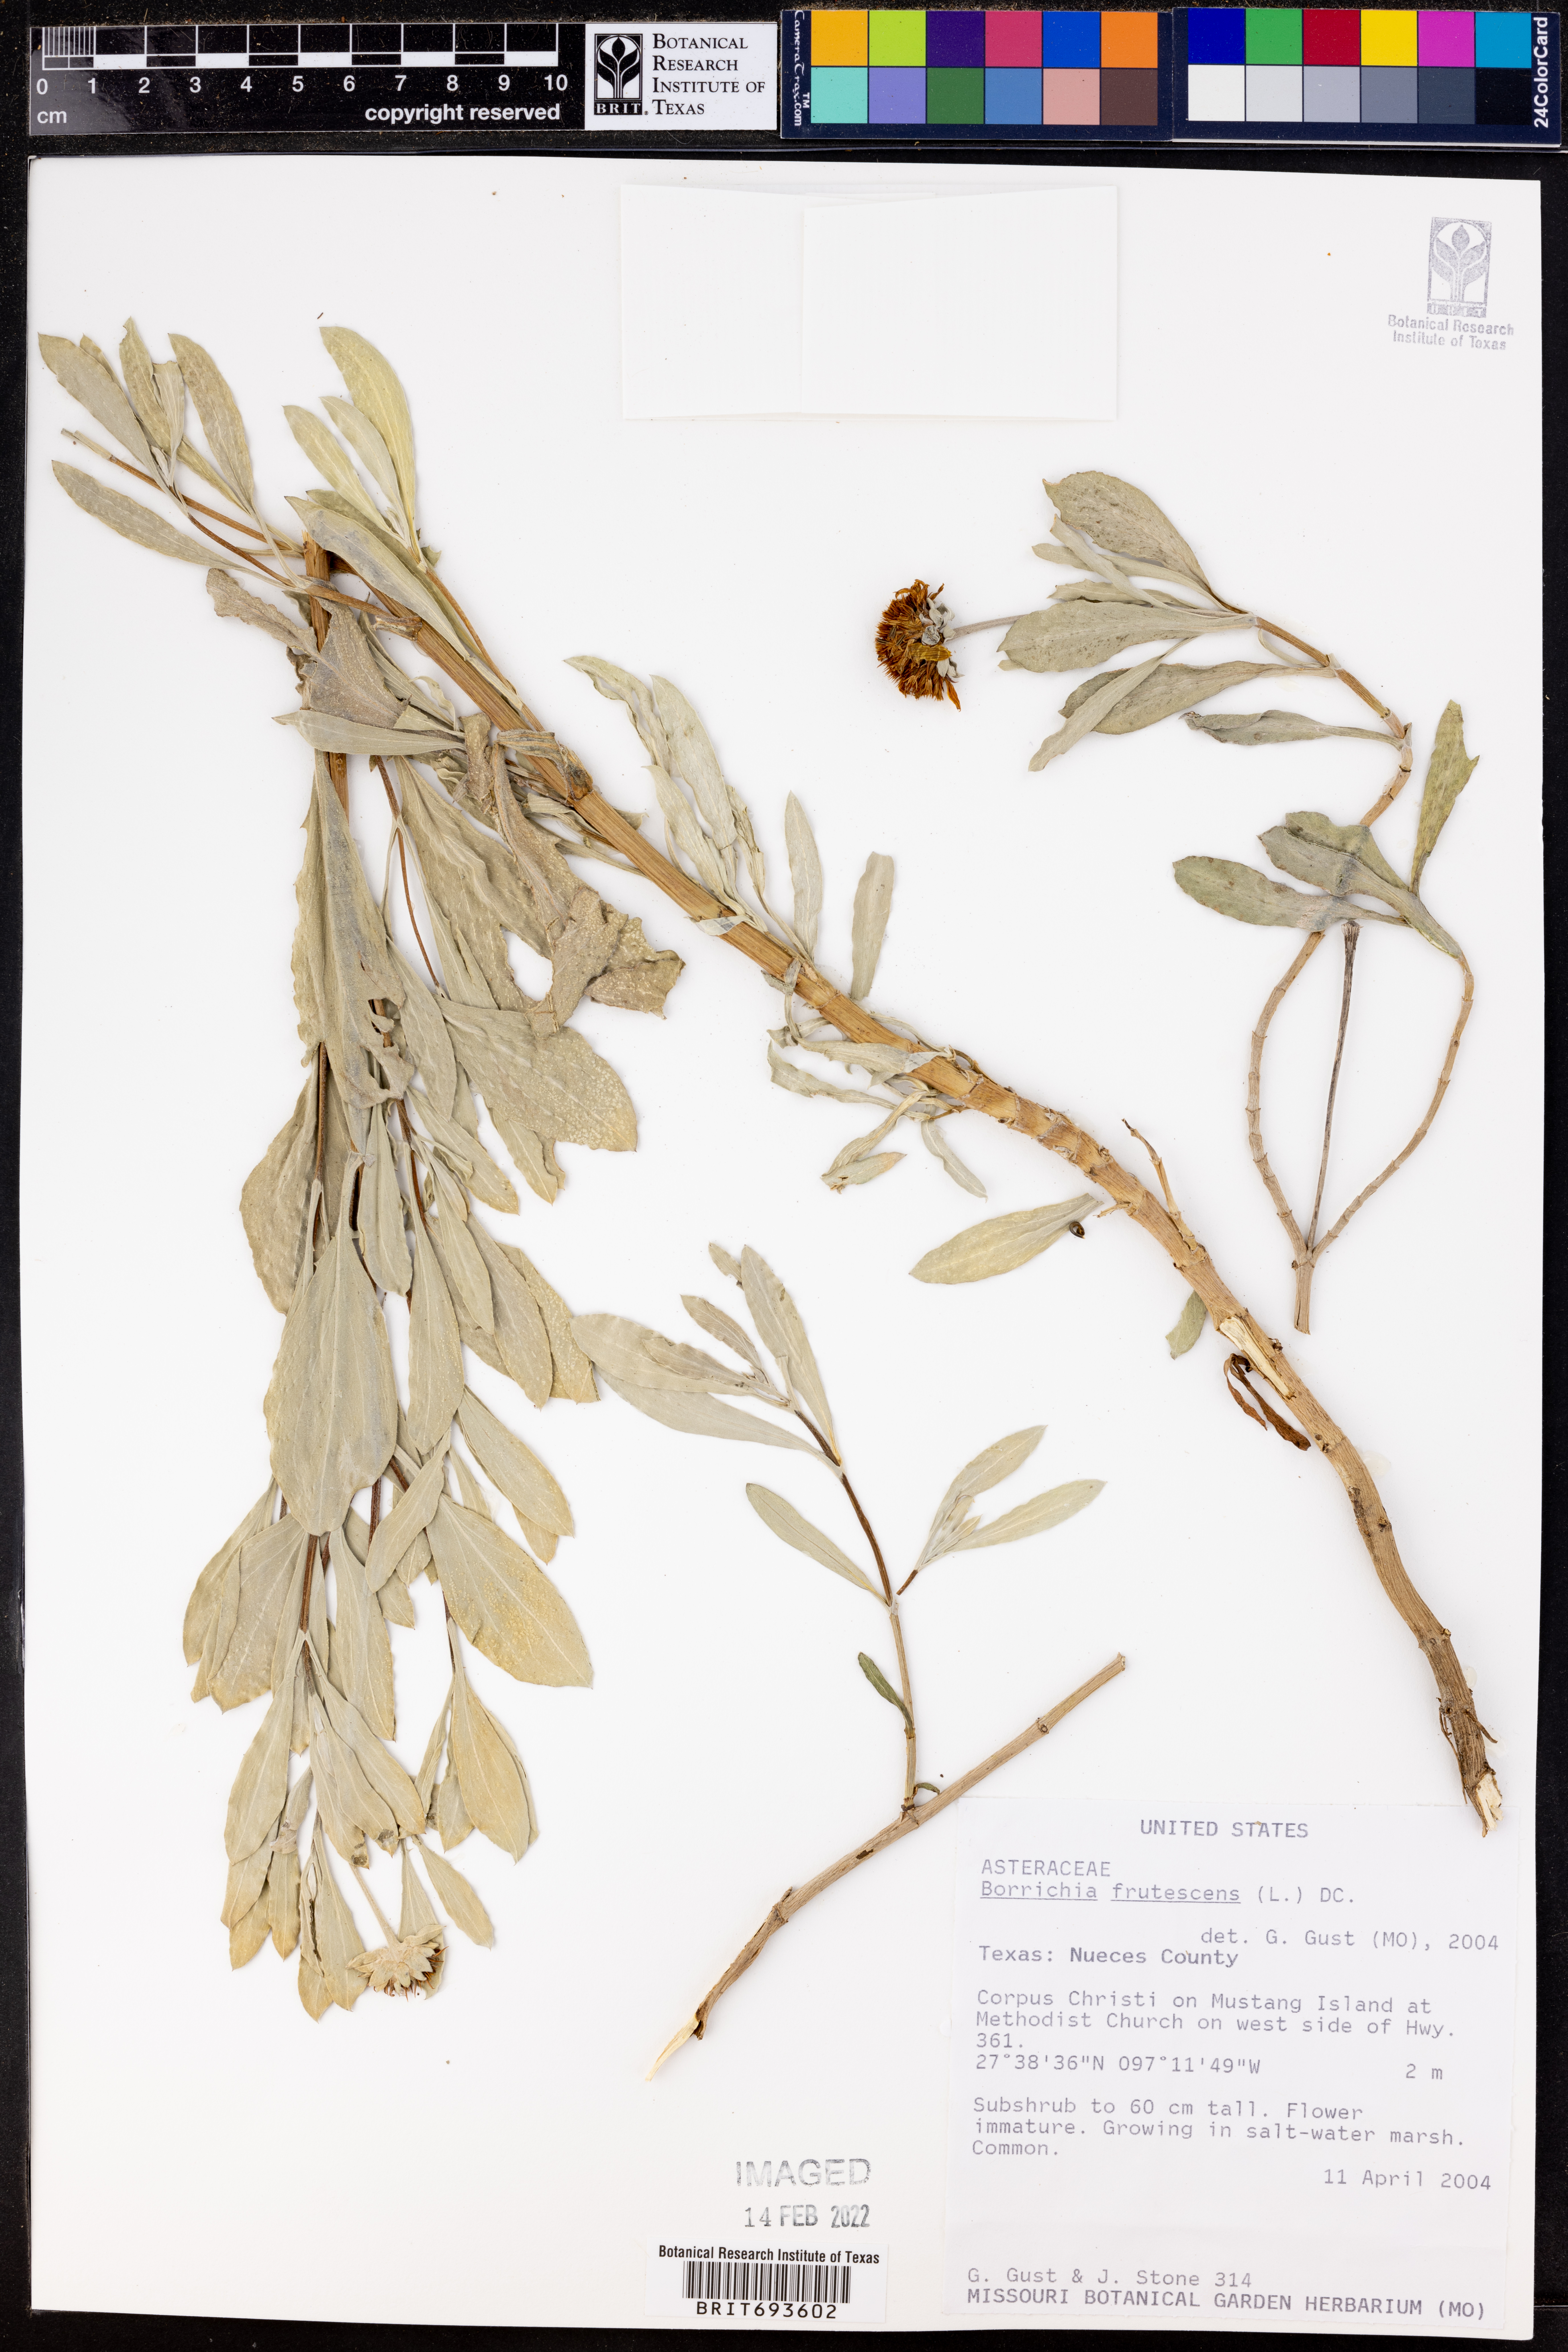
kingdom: Plantae
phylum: Tracheophyta
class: Magnoliopsida
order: Asterales
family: Asteraceae
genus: Borrichia
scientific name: Borrichia frutescens
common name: Sea oxeye
